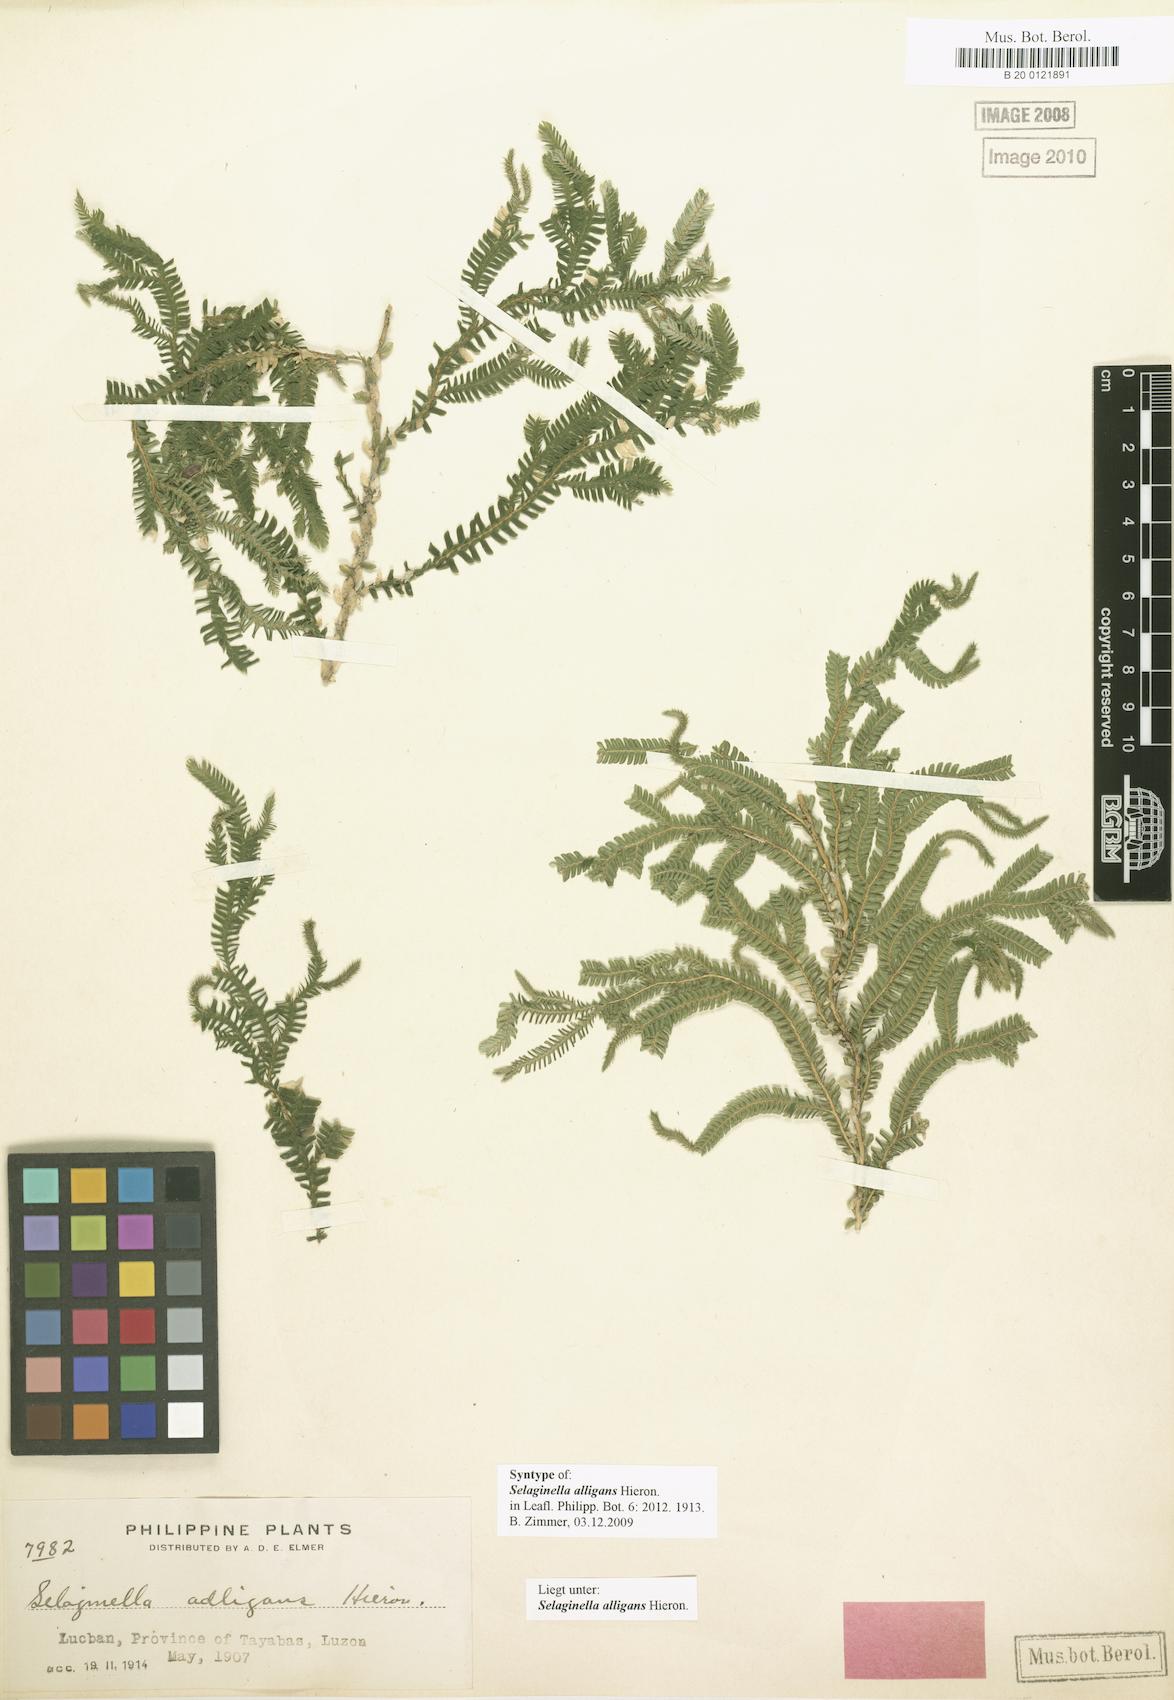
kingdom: Plantae
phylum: Tracheophyta
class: Lycopodiopsida
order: Selaginellales
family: Selaginellaceae
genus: Selaginella
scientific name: Selaginella alligans
